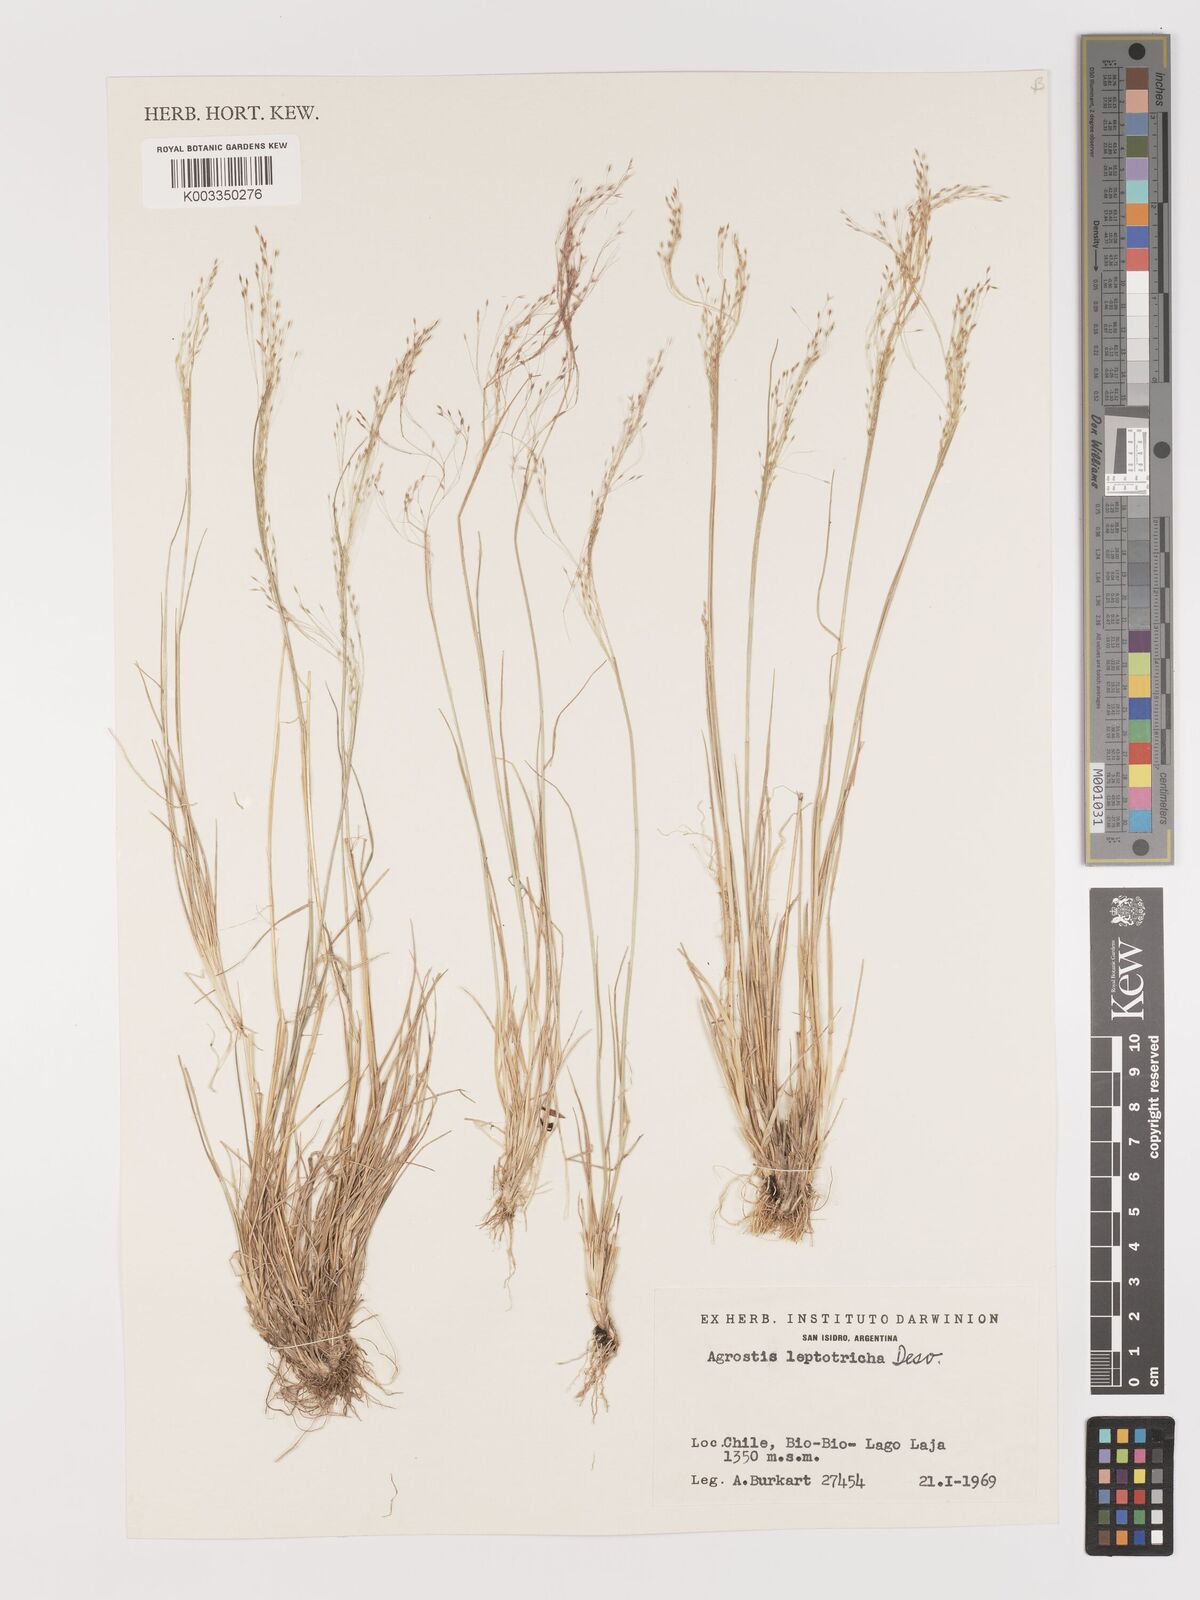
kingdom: Plantae
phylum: Tracheophyta
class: Liliopsida
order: Poales
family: Poaceae
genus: Agrostis
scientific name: Agrostis leptotricha
